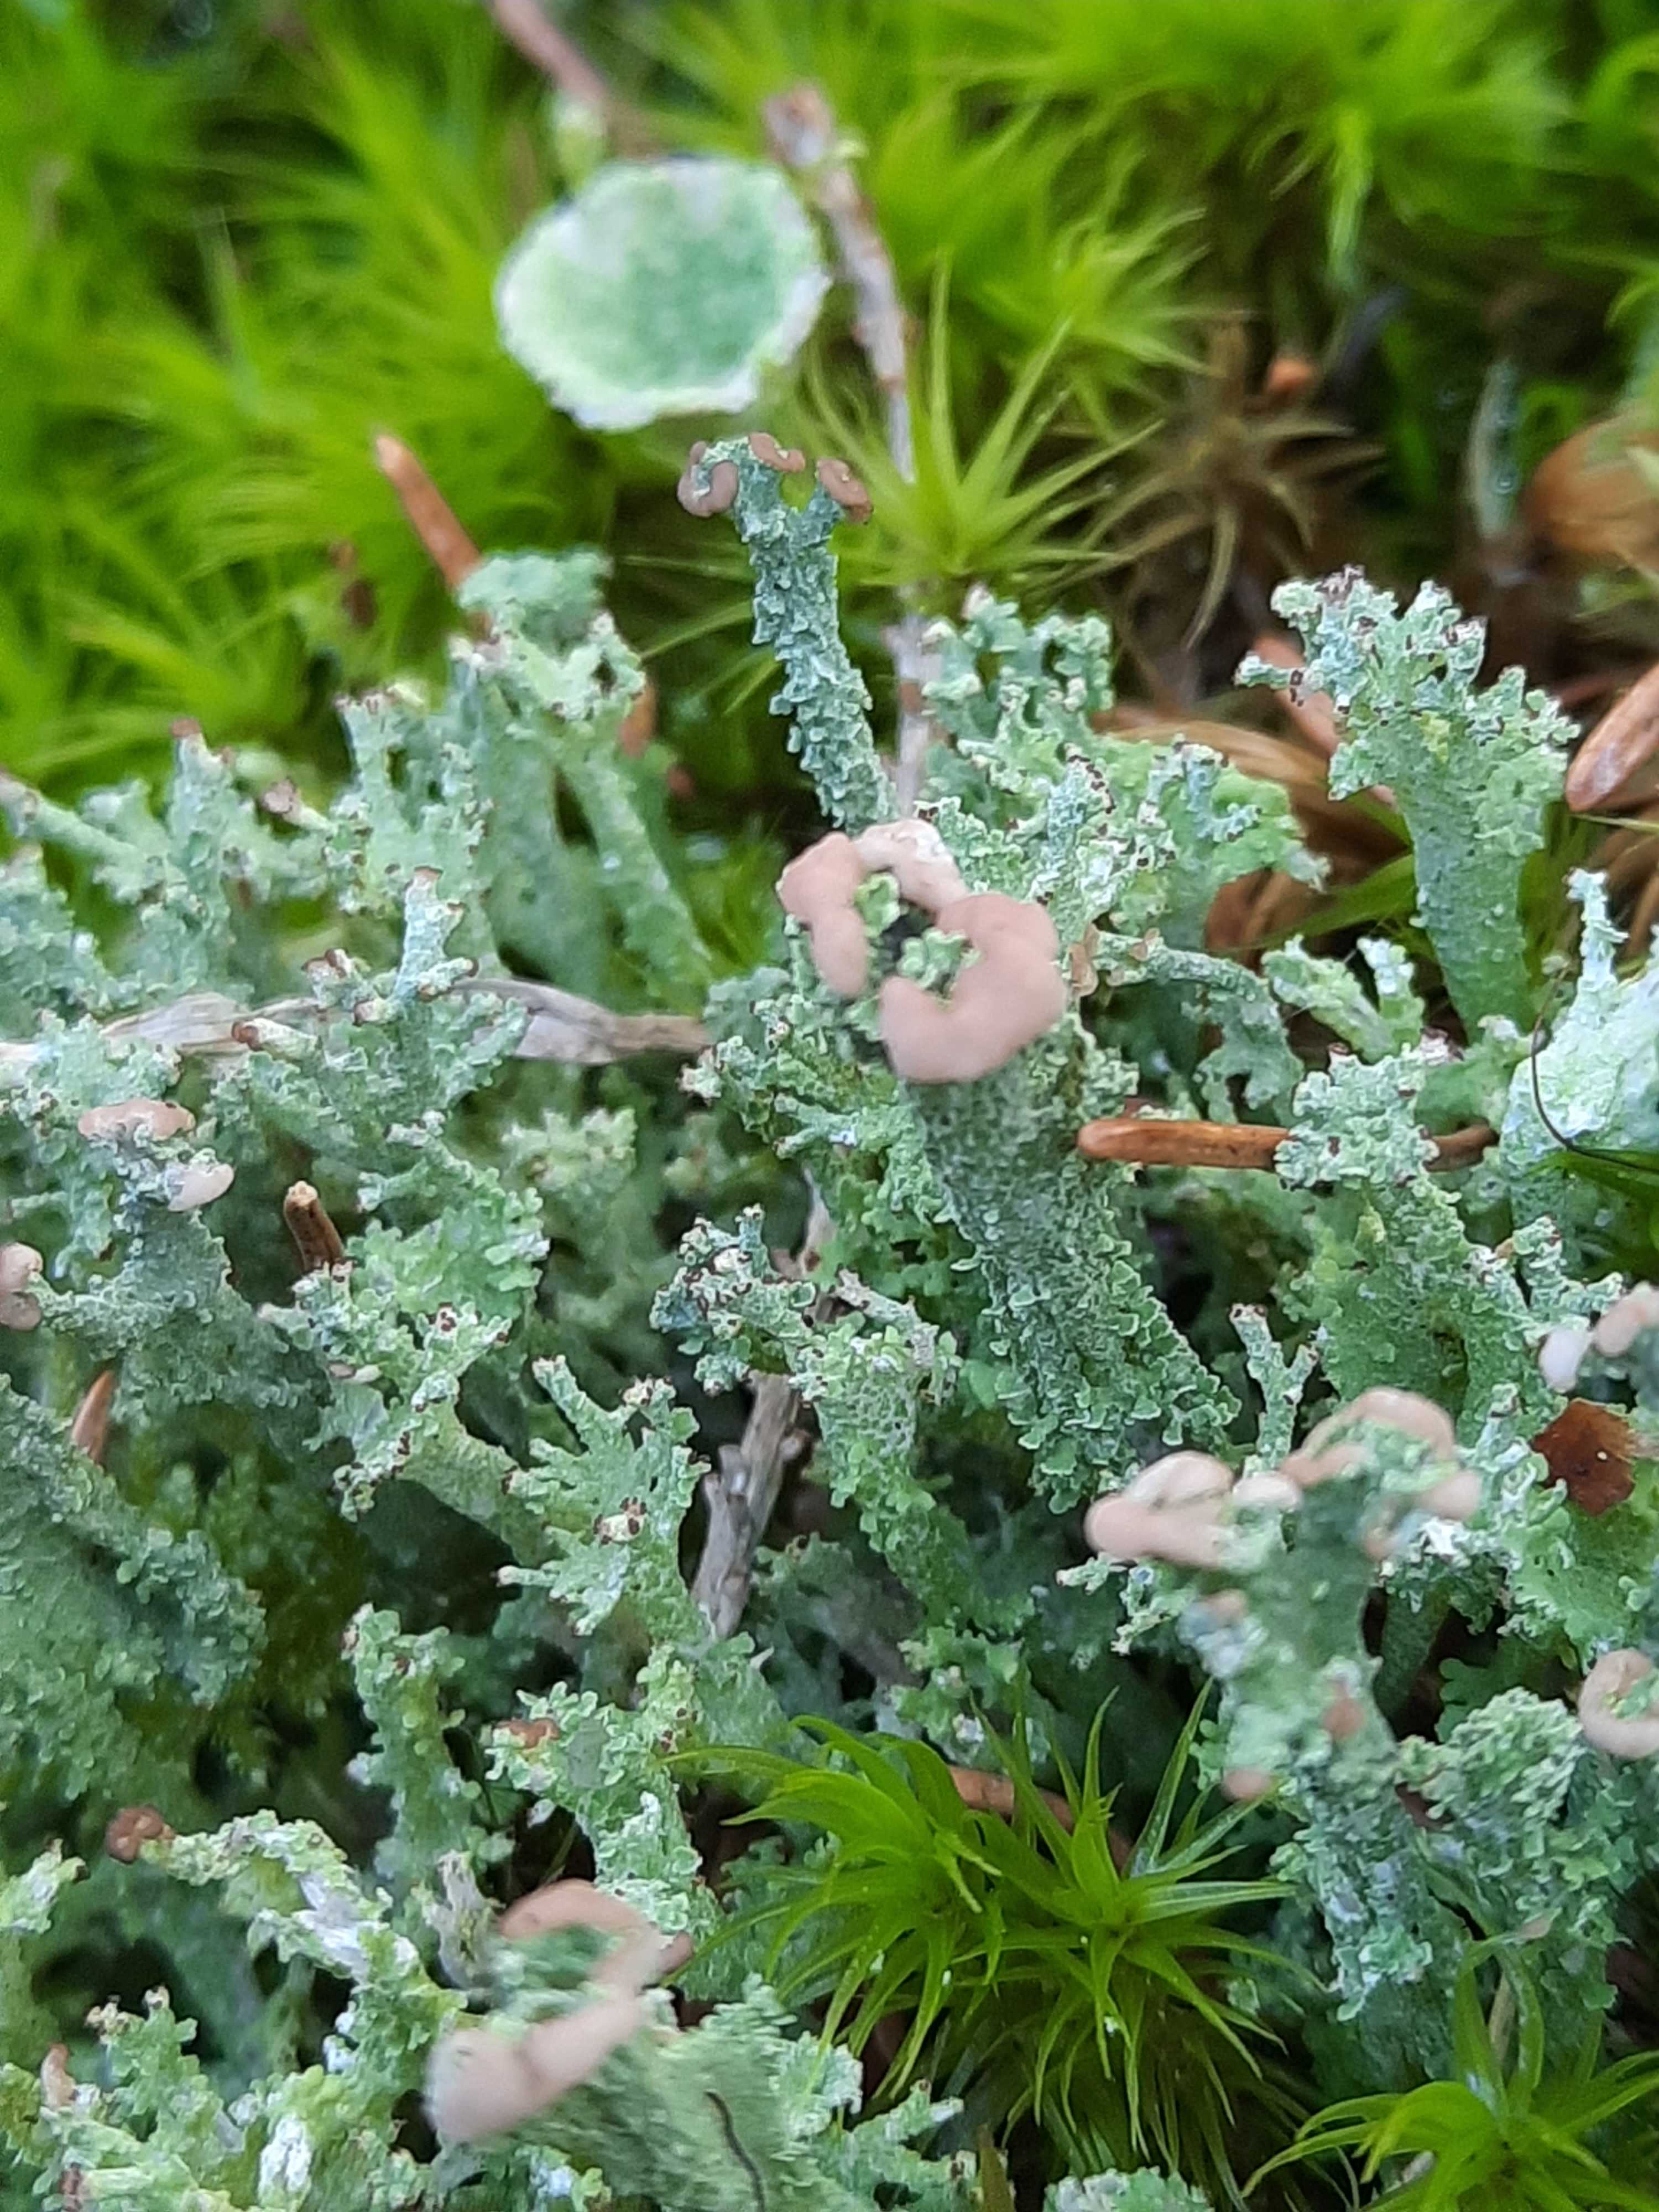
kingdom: Fungi
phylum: Ascomycota
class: Lecanoromycetes
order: Lecanorales
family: Cladoniaceae
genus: Cladonia
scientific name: Cladonia ramulosa
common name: kliddet bægerlav
